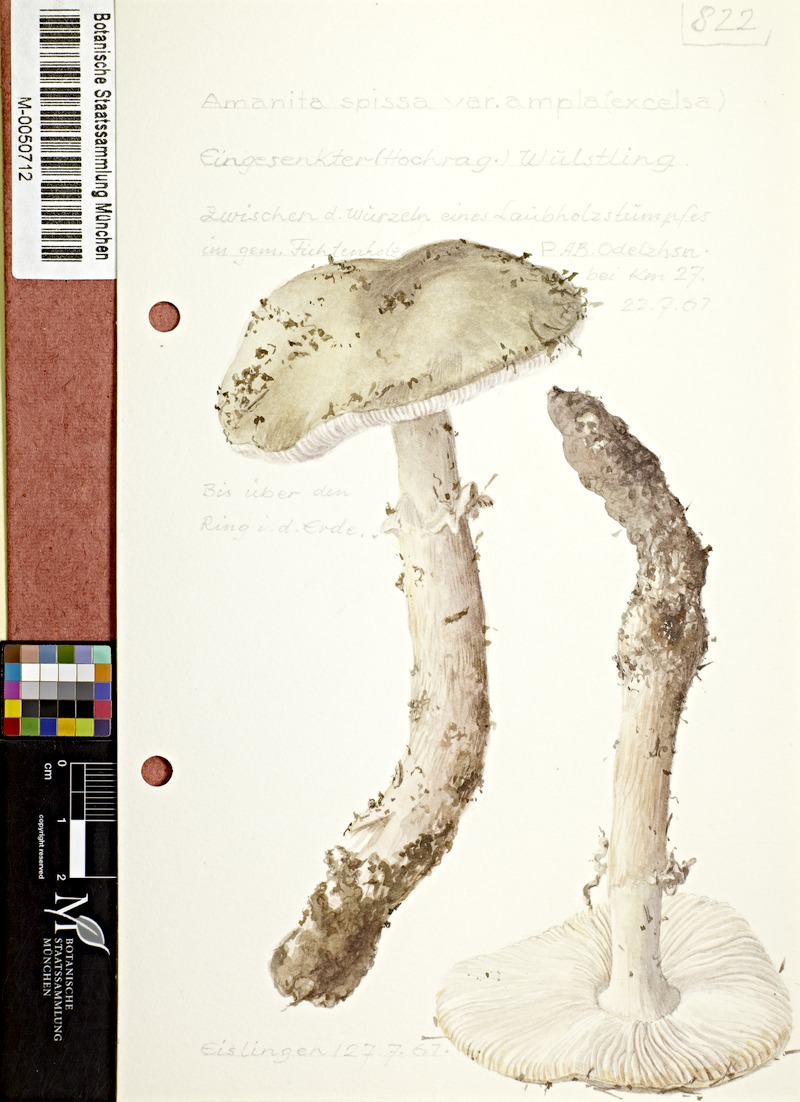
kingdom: Fungi
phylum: Basidiomycota
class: Agaricomycetes
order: Agaricales
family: Amanitaceae
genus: Amanita
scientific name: Amanita excelsa
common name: European false blusher
